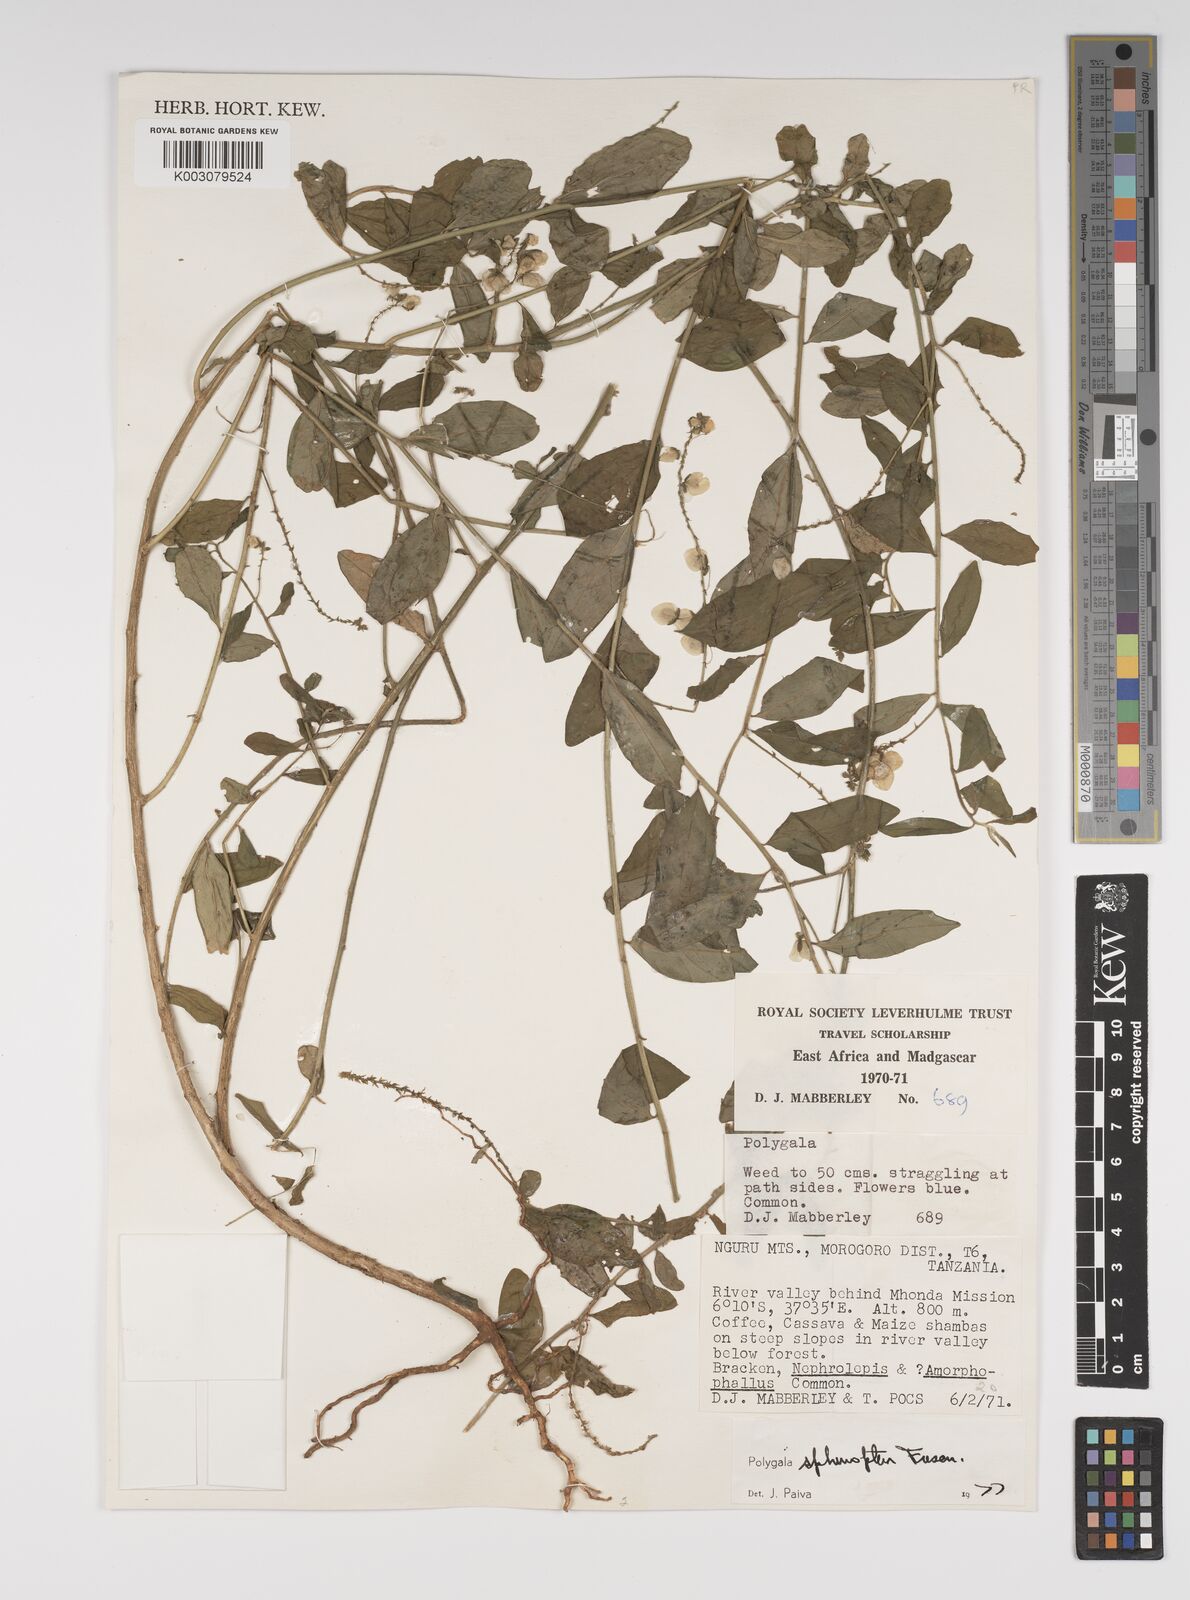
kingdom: Plantae
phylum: Tracheophyta
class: Magnoliopsida
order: Fabales
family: Polygalaceae
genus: Polygala
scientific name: Polygala sphenoptera
